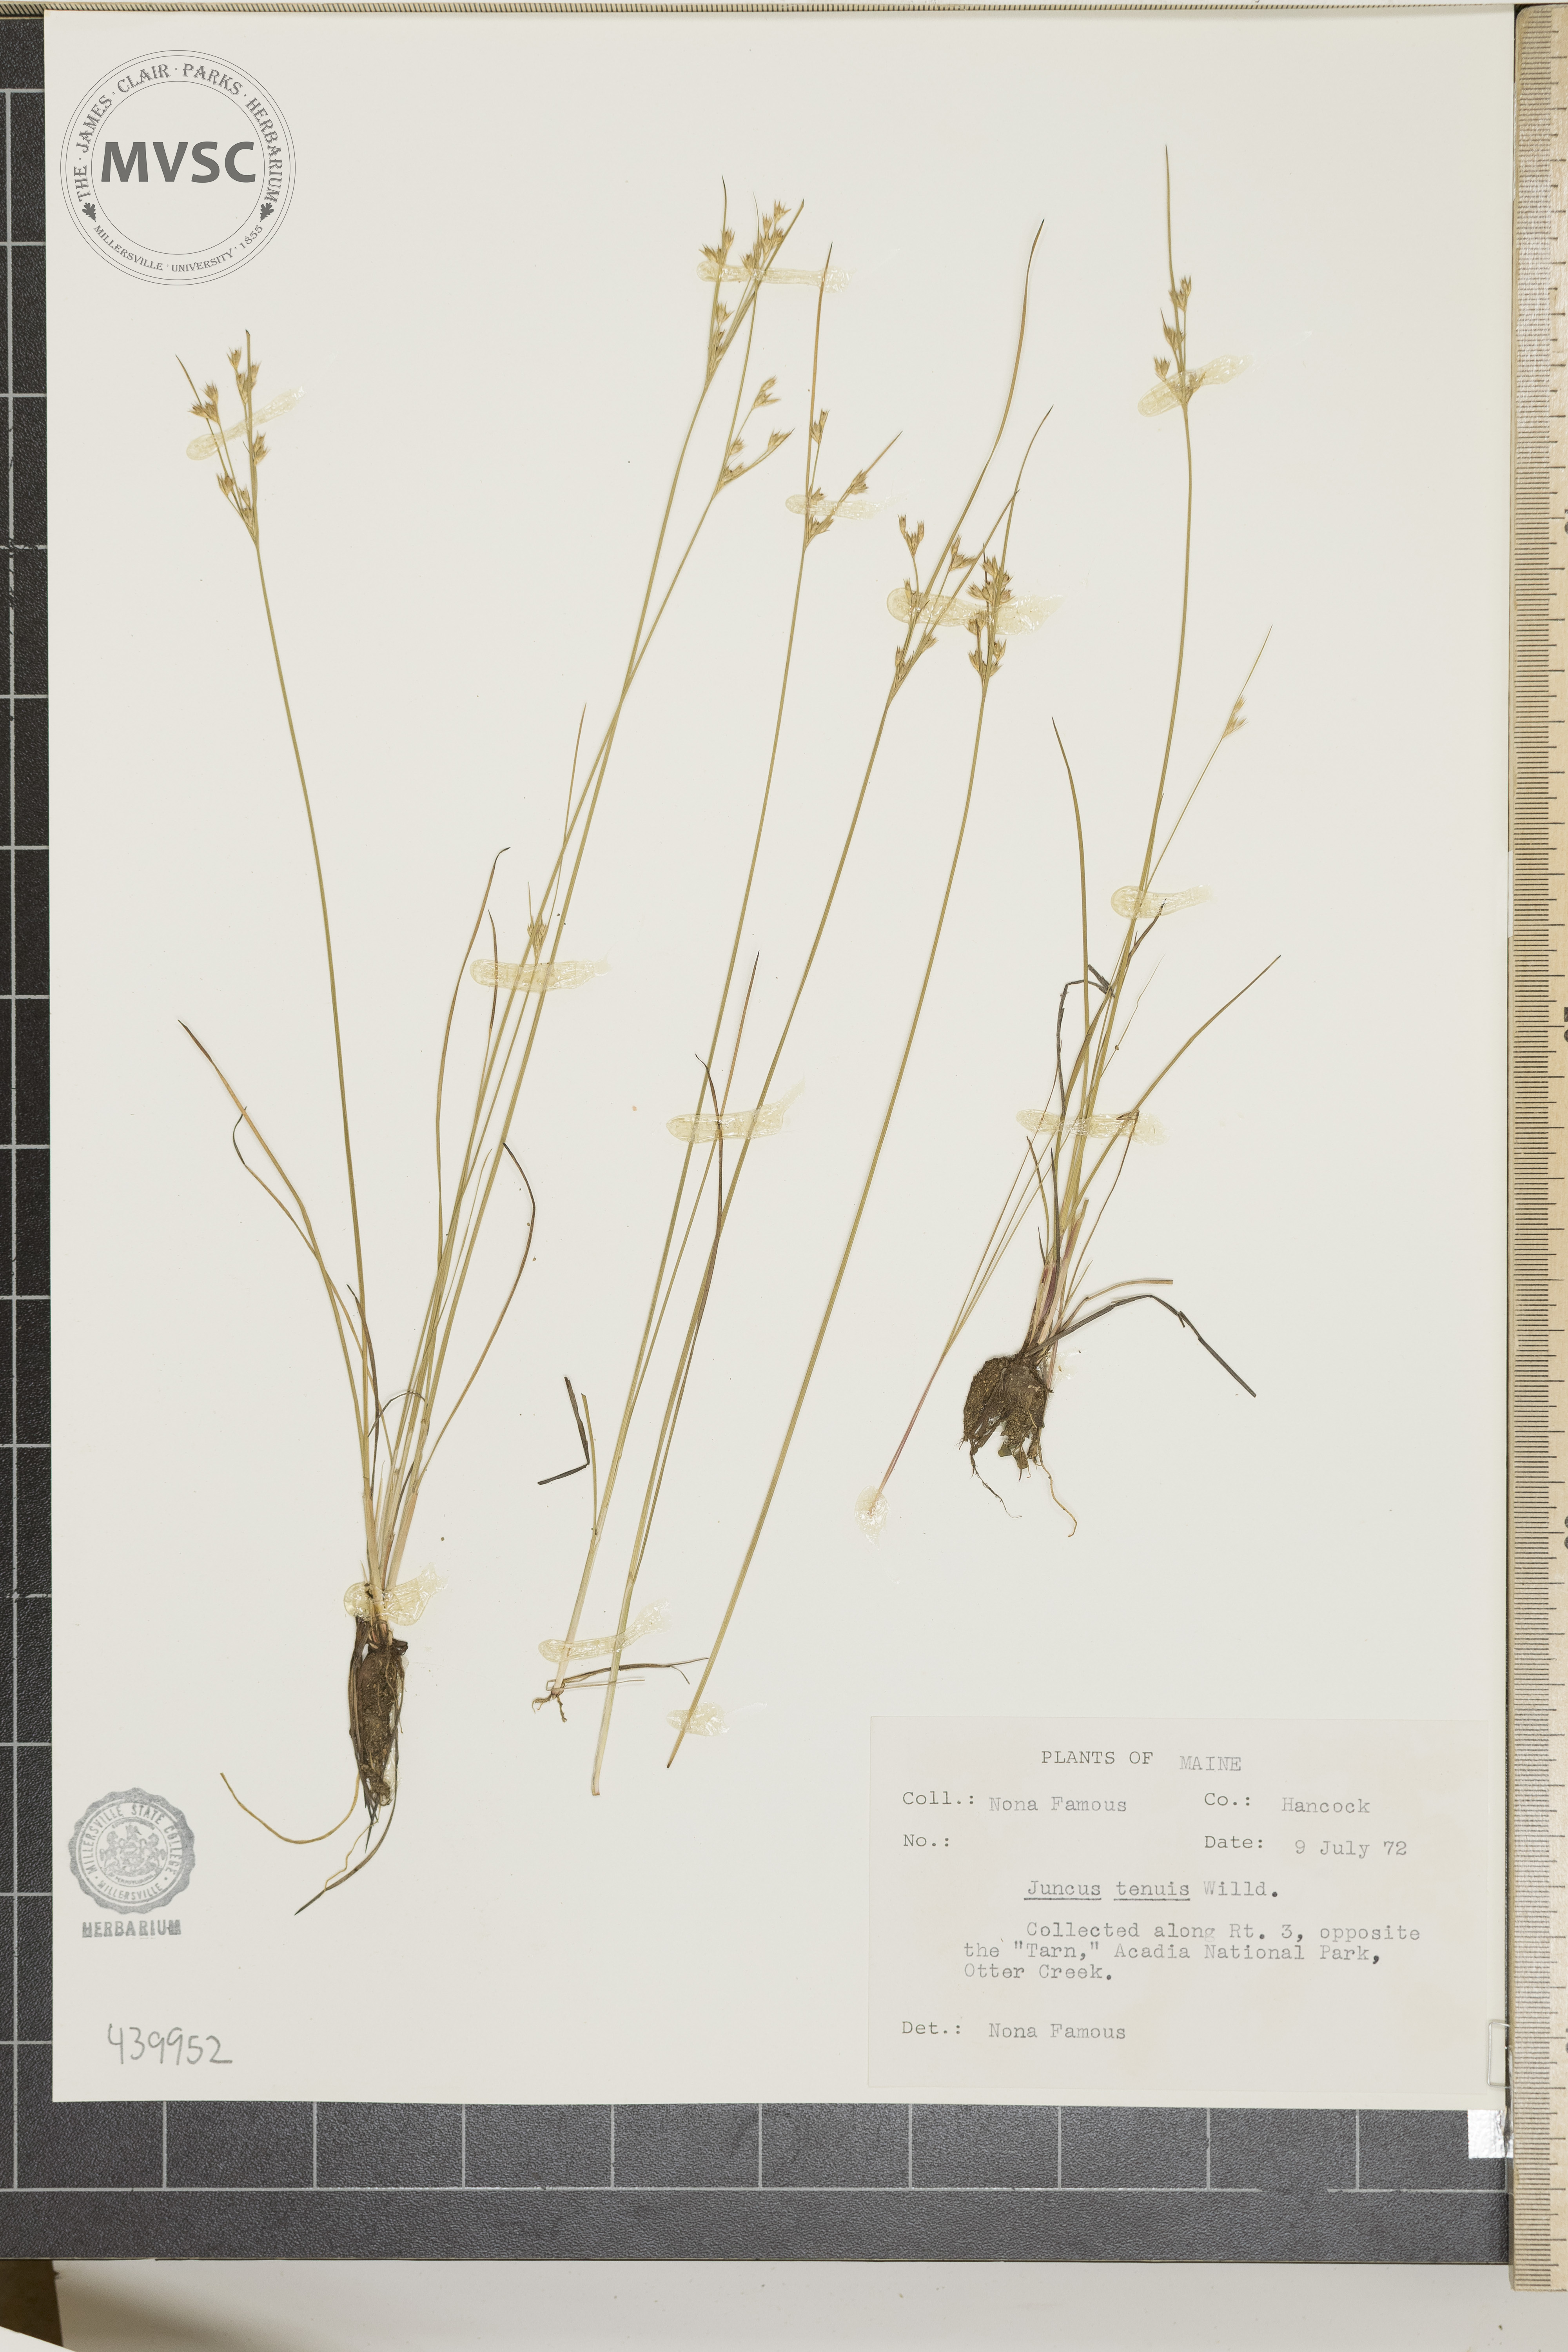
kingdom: Plantae
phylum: Tracheophyta
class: Liliopsida
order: Poales
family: Juncaceae
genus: Juncus
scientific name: Juncus tenuis
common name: Slender rush
